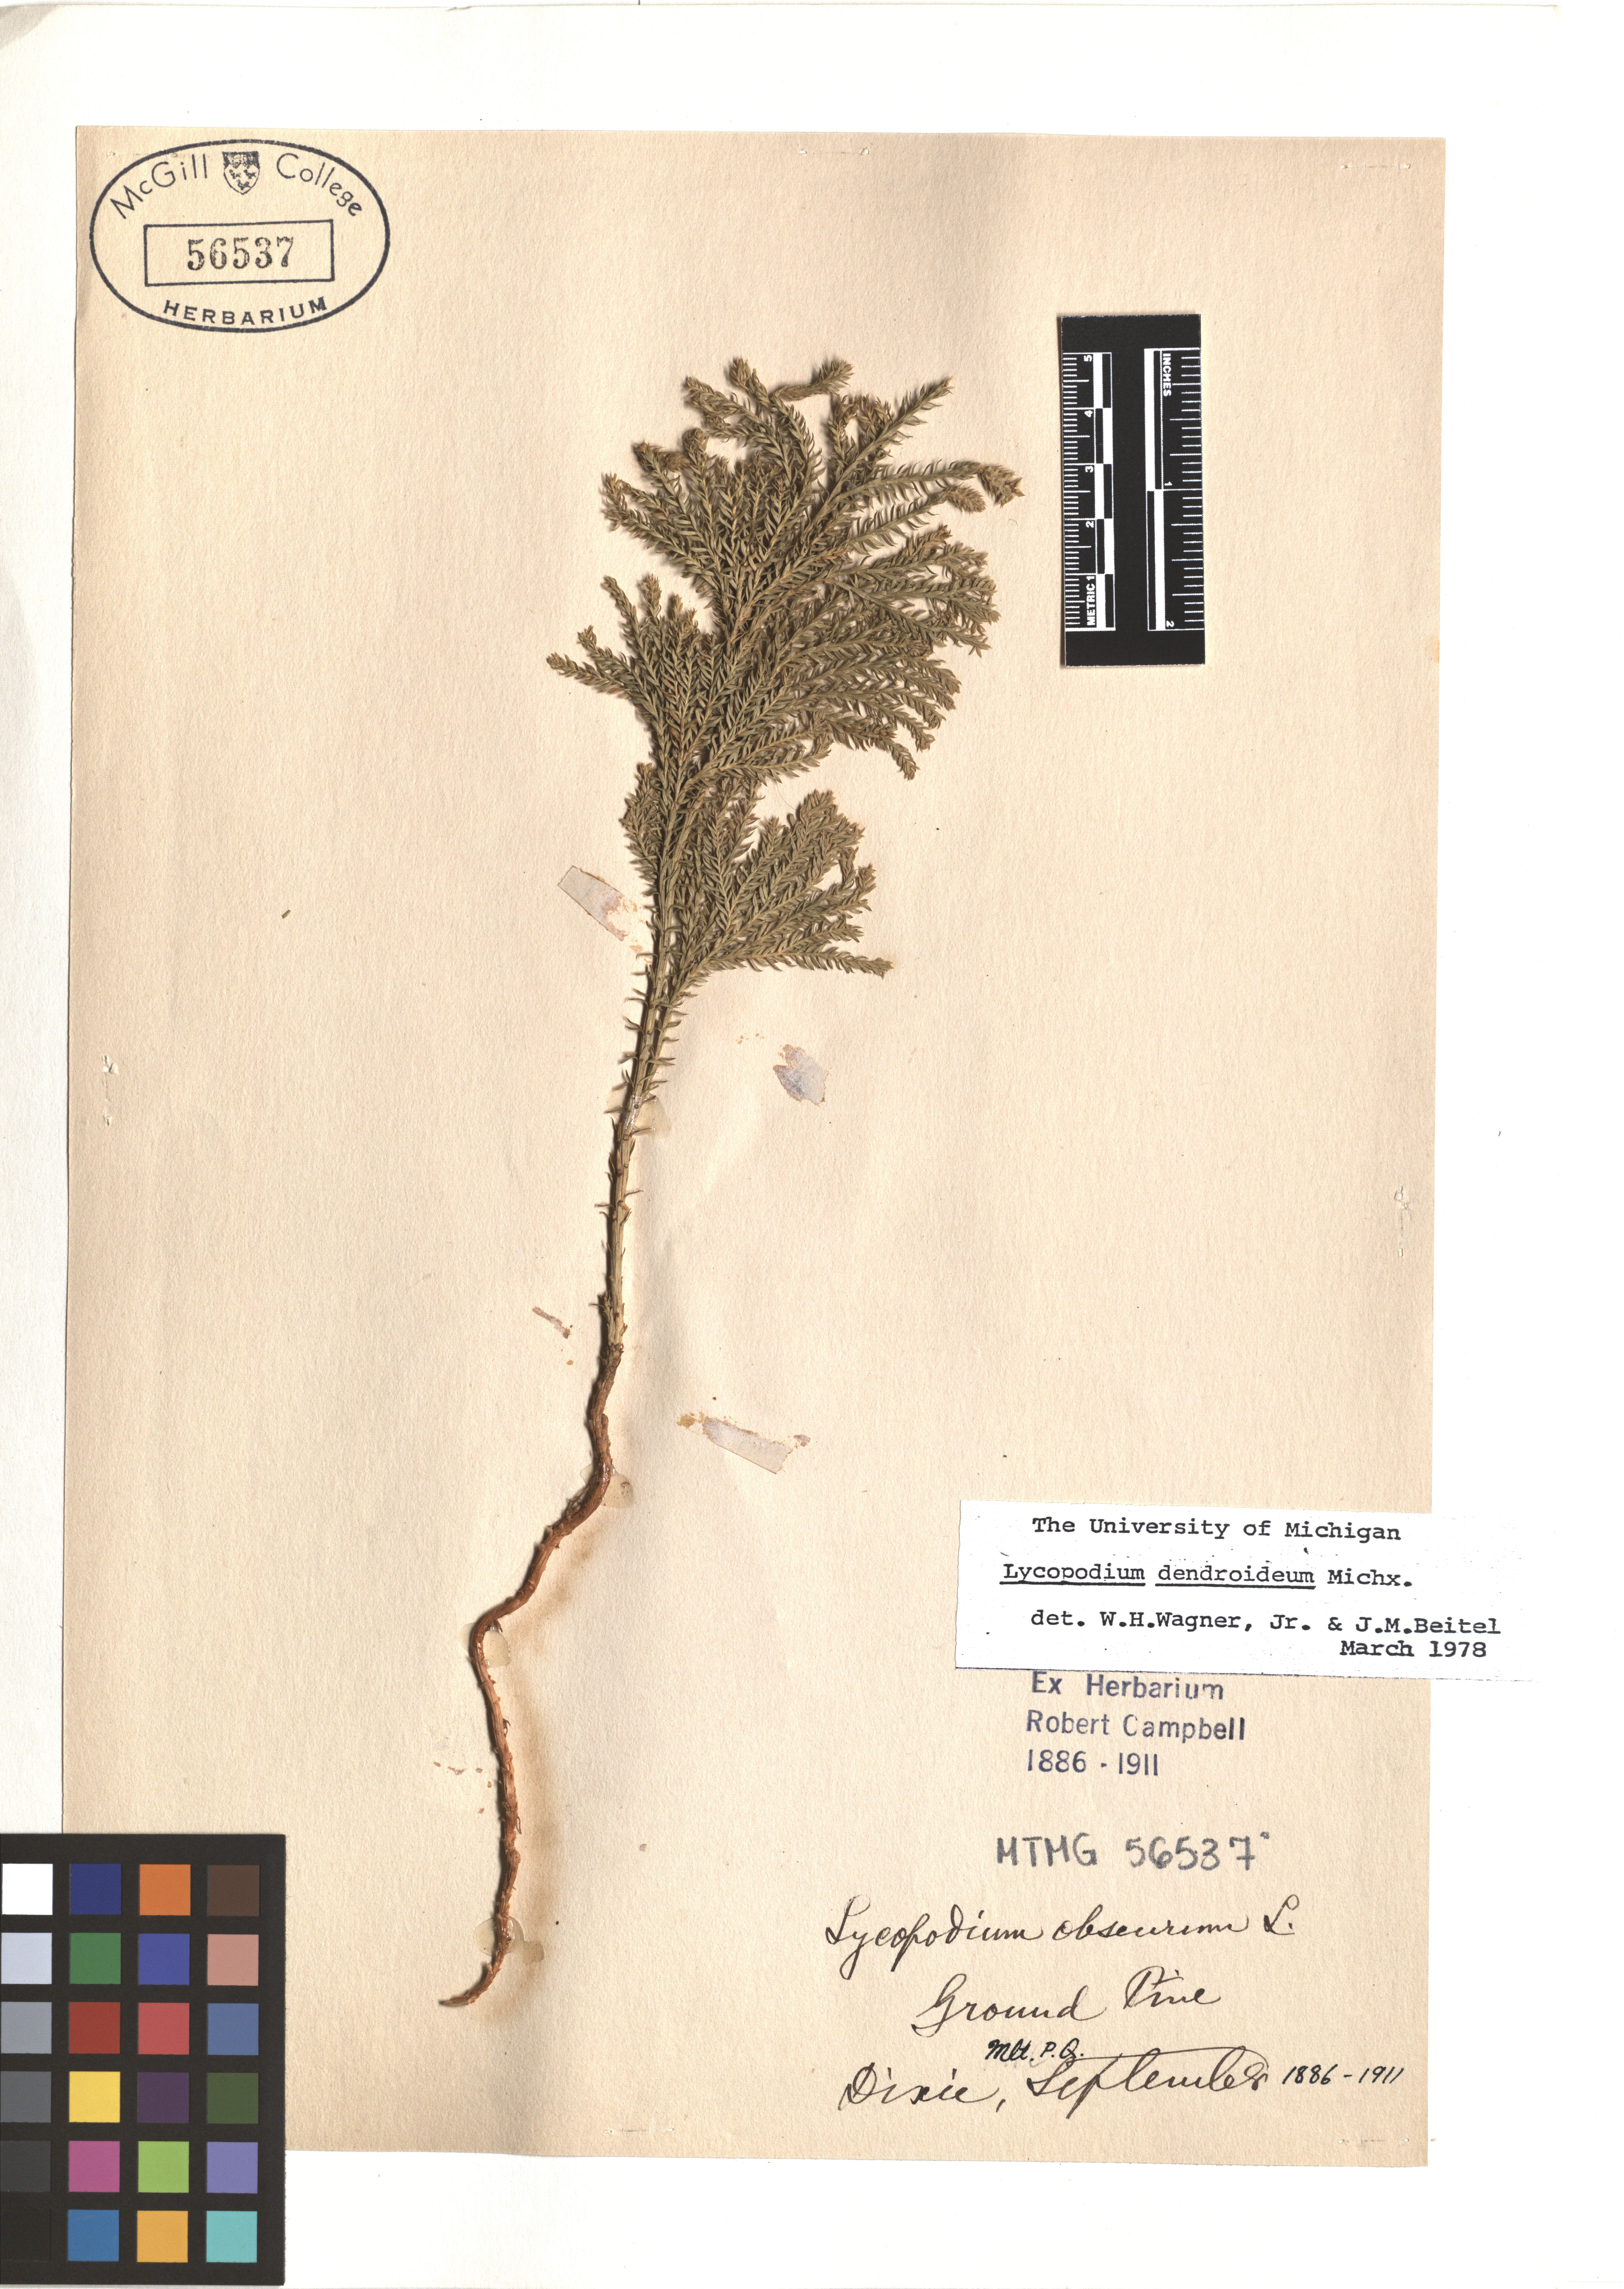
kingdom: Plantae
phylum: Tracheophyta
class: Lycopodiopsida
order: Lycopodiales
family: Lycopodiaceae
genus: Dendrolycopodium
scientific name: Dendrolycopodium dendroideum
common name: Northern tree-clubmoss
